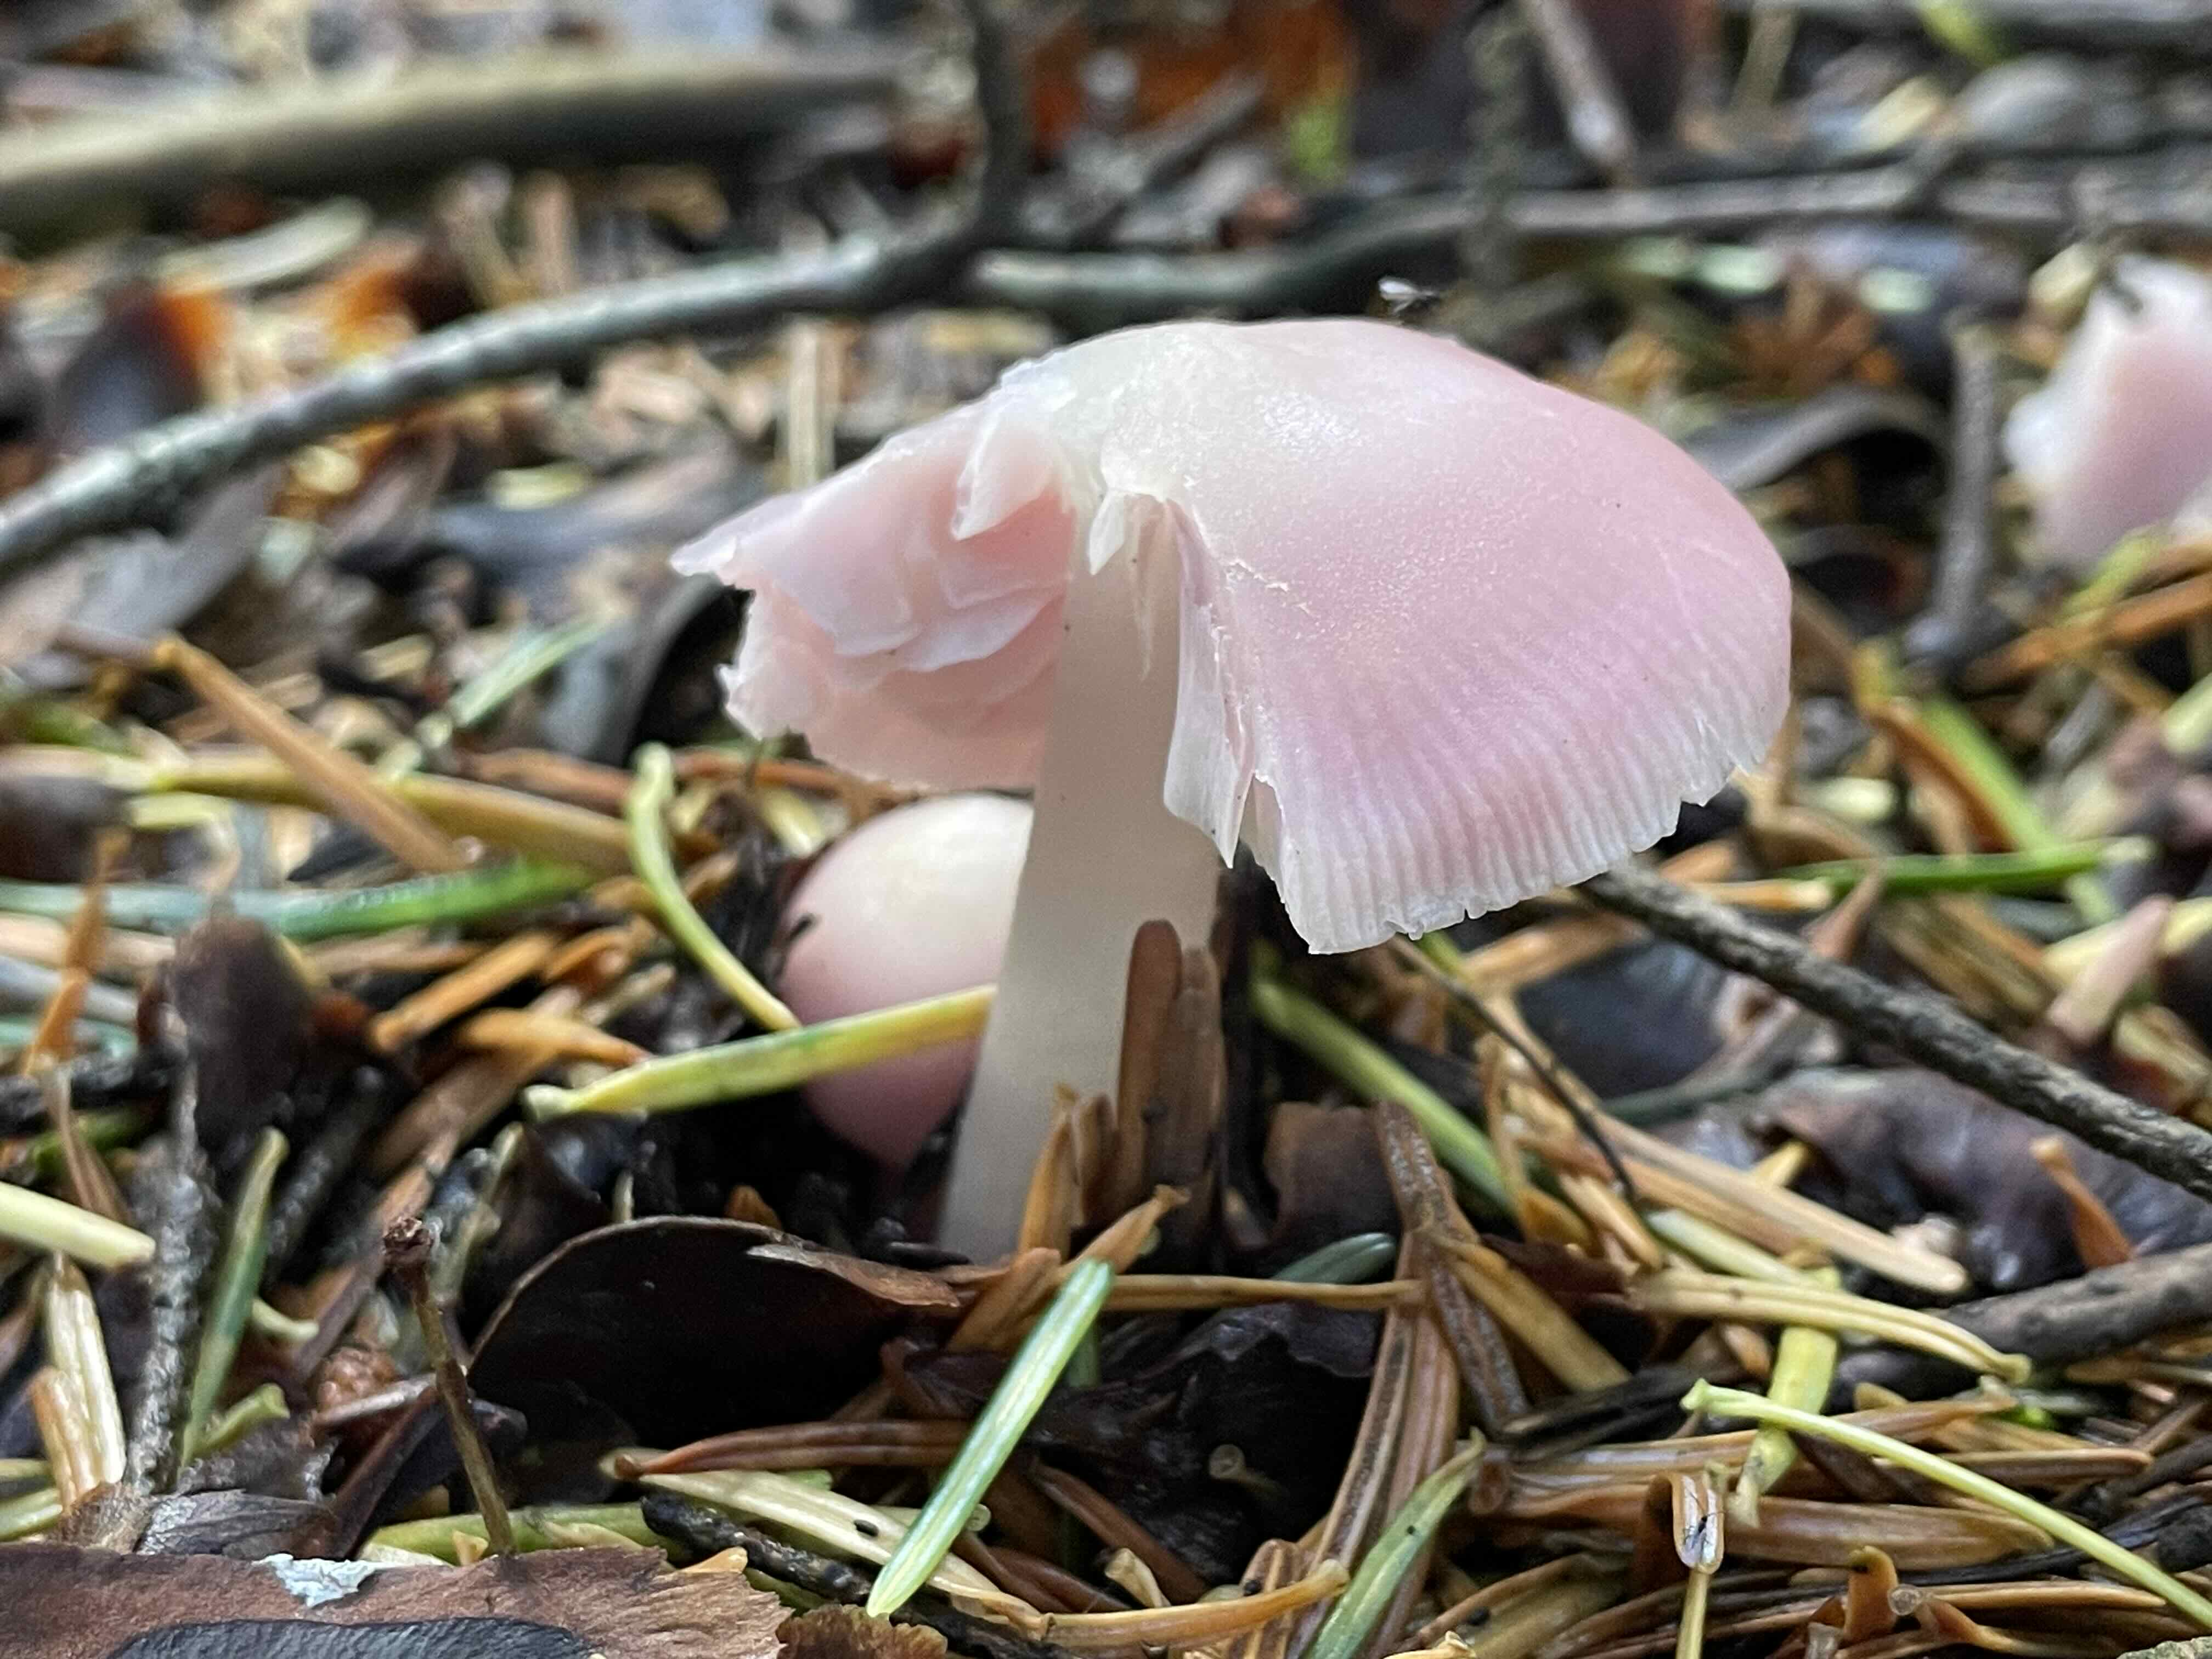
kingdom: Fungi
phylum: Basidiomycota
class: Agaricomycetes
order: Agaricales
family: Mycenaceae
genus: Mycena
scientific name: Mycena rosea
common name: rosa huesvamp
